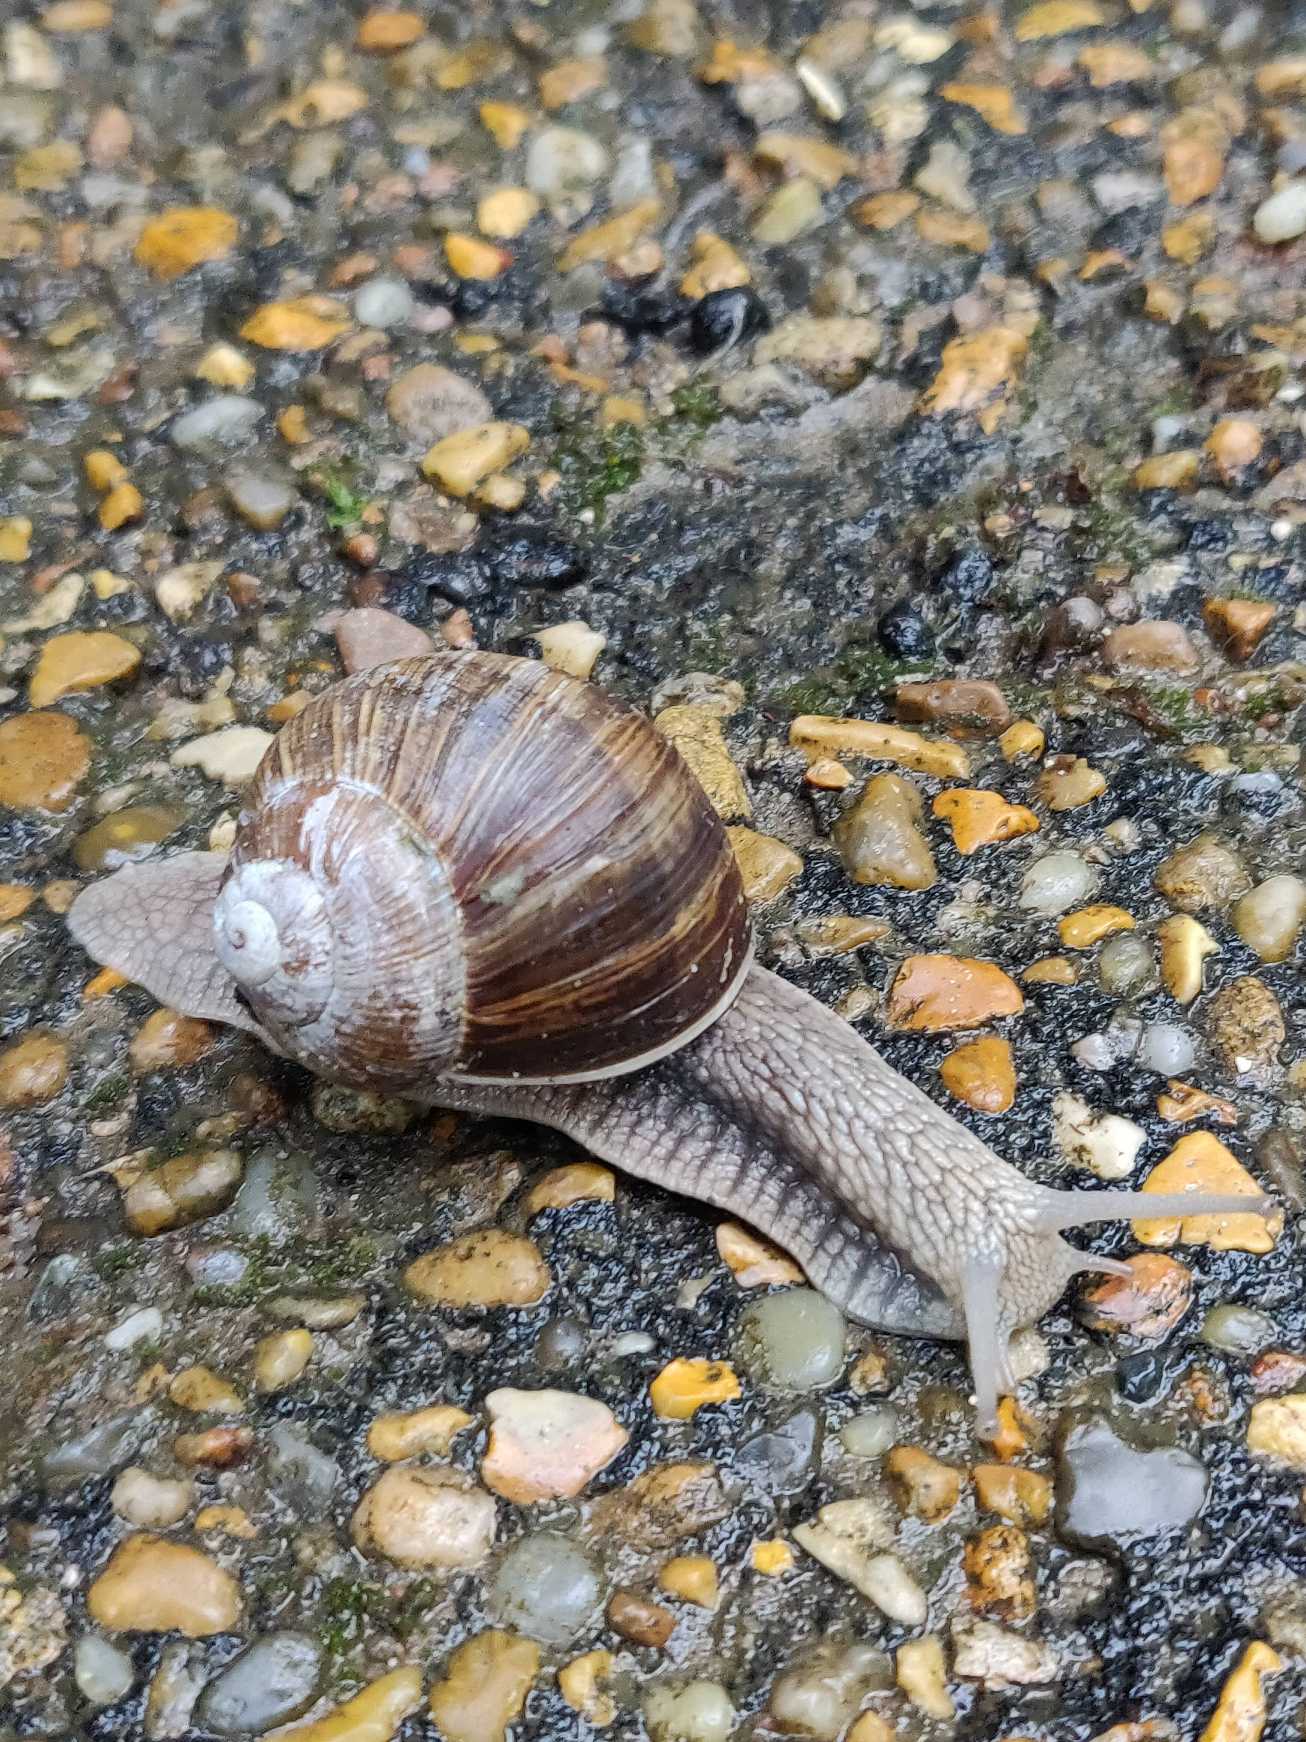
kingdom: Animalia
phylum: Mollusca
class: Gastropoda
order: Stylommatophora
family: Helicidae
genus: Helix
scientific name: Helix pomatia
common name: Vinbjergsnegl
